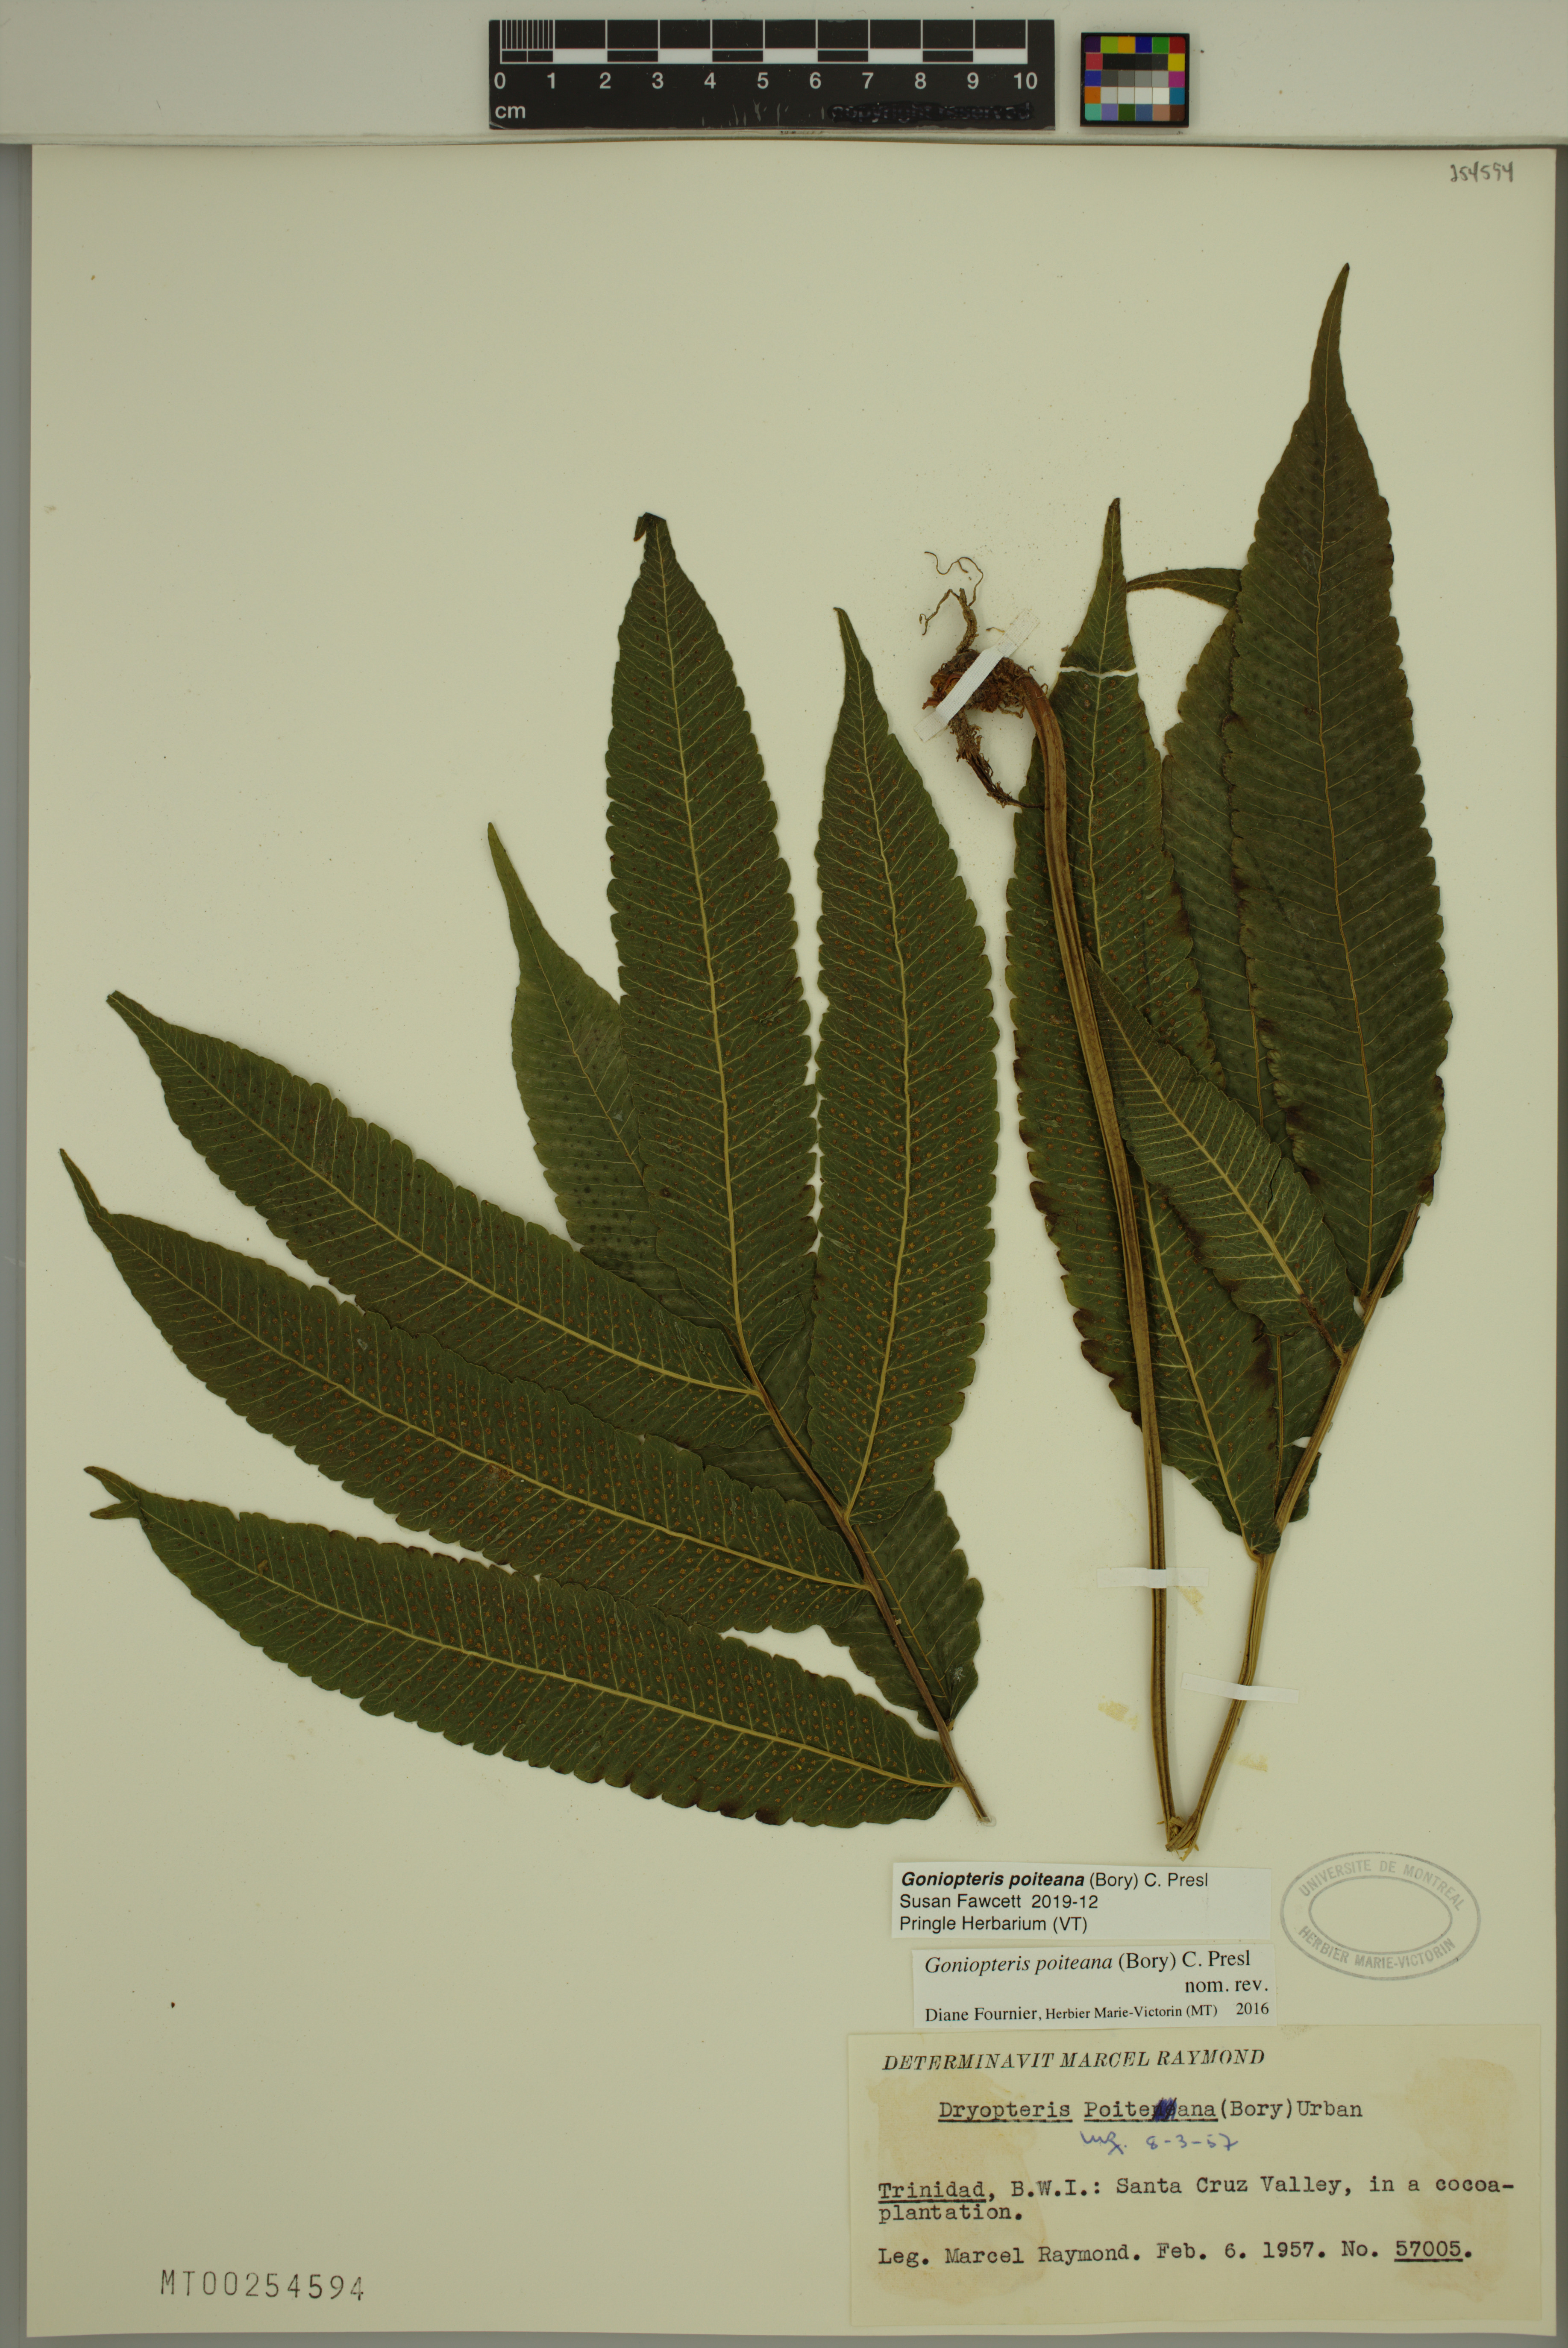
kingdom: Plantae
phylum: Tracheophyta
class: Polypodiopsida
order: Polypodiales
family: Thelypteridaceae
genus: Goniopteris
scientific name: Goniopteris poiteana
